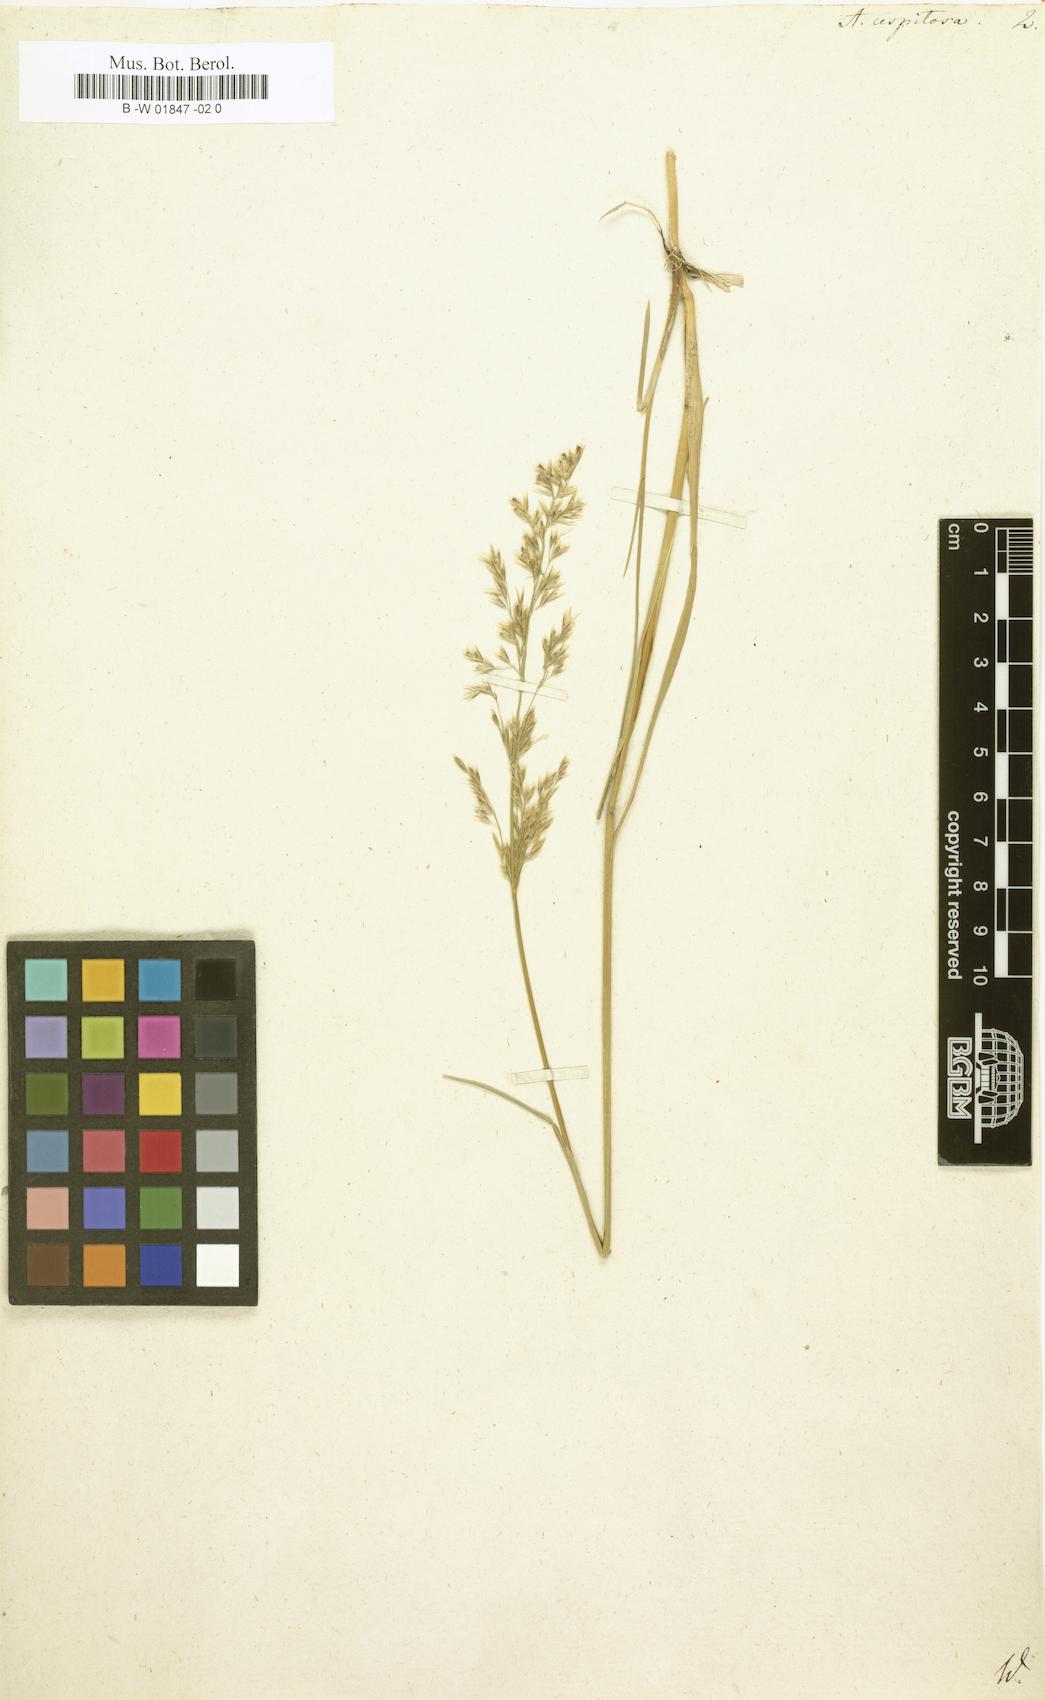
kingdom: Plantae
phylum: Tracheophyta
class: Liliopsida
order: Poales
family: Poaceae
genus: Deschampsia
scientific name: Deschampsia cespitosa
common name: Tufted hair-grass
